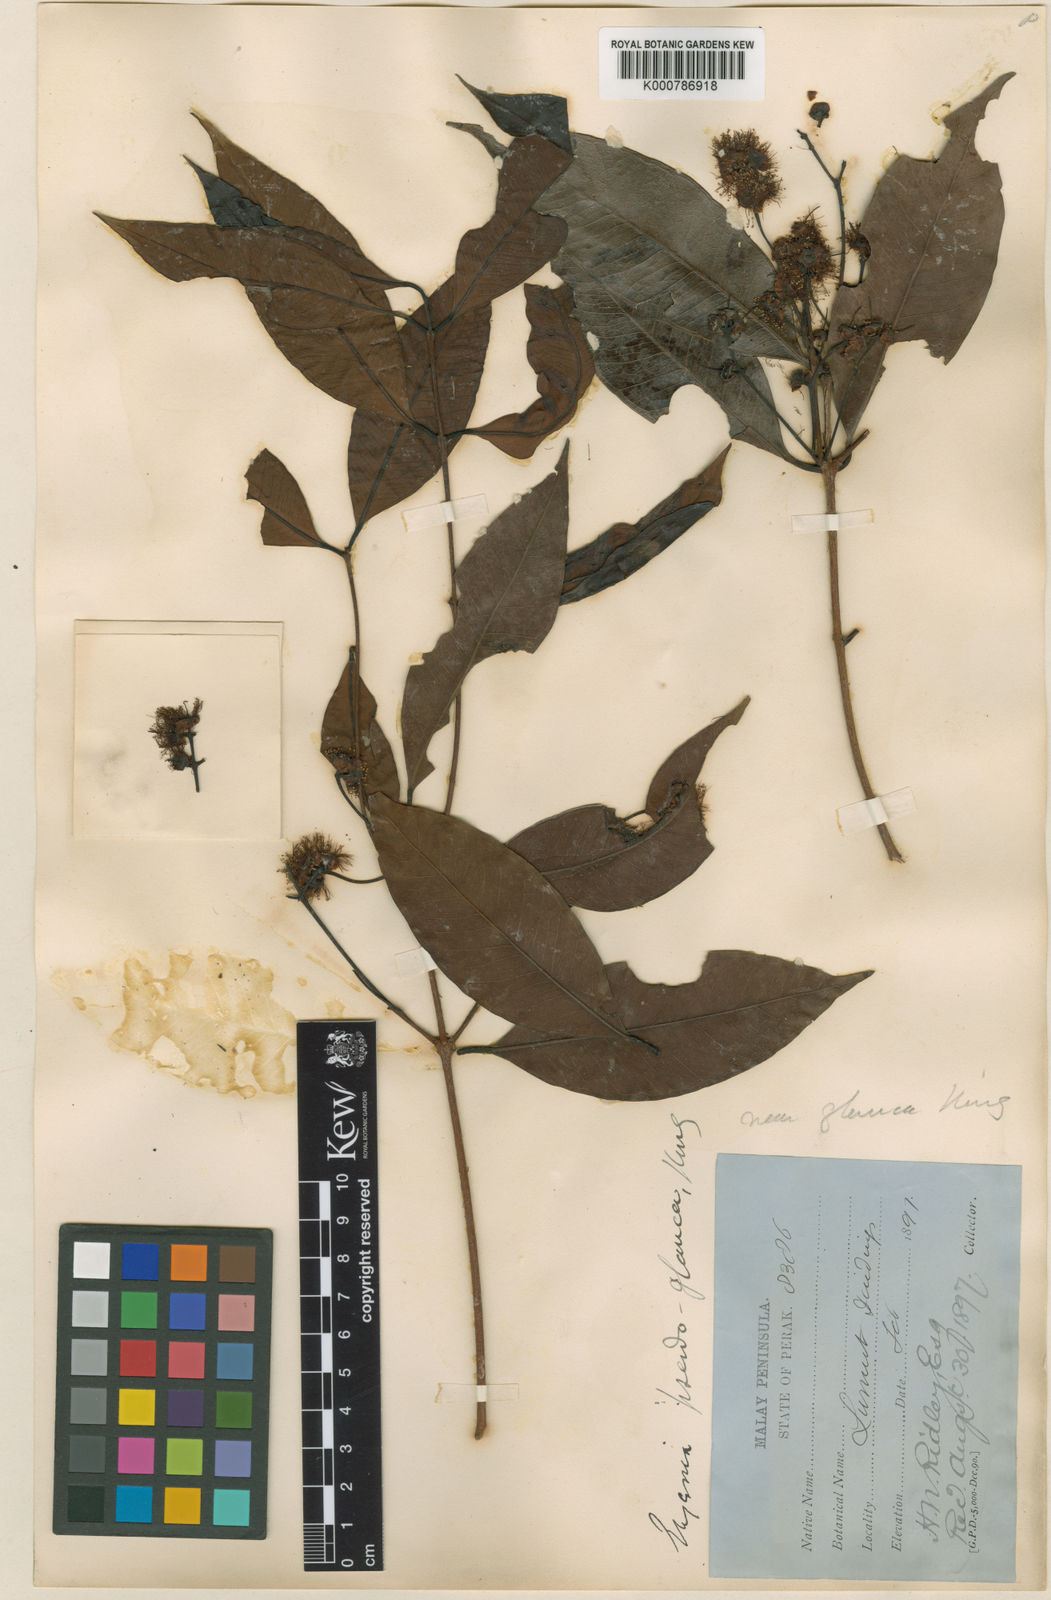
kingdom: Plantae
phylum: Tracheophyta
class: Magnoliopsida
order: Myrtales
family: Myrtaceae
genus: Syzygium
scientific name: Syzygium glaucum
